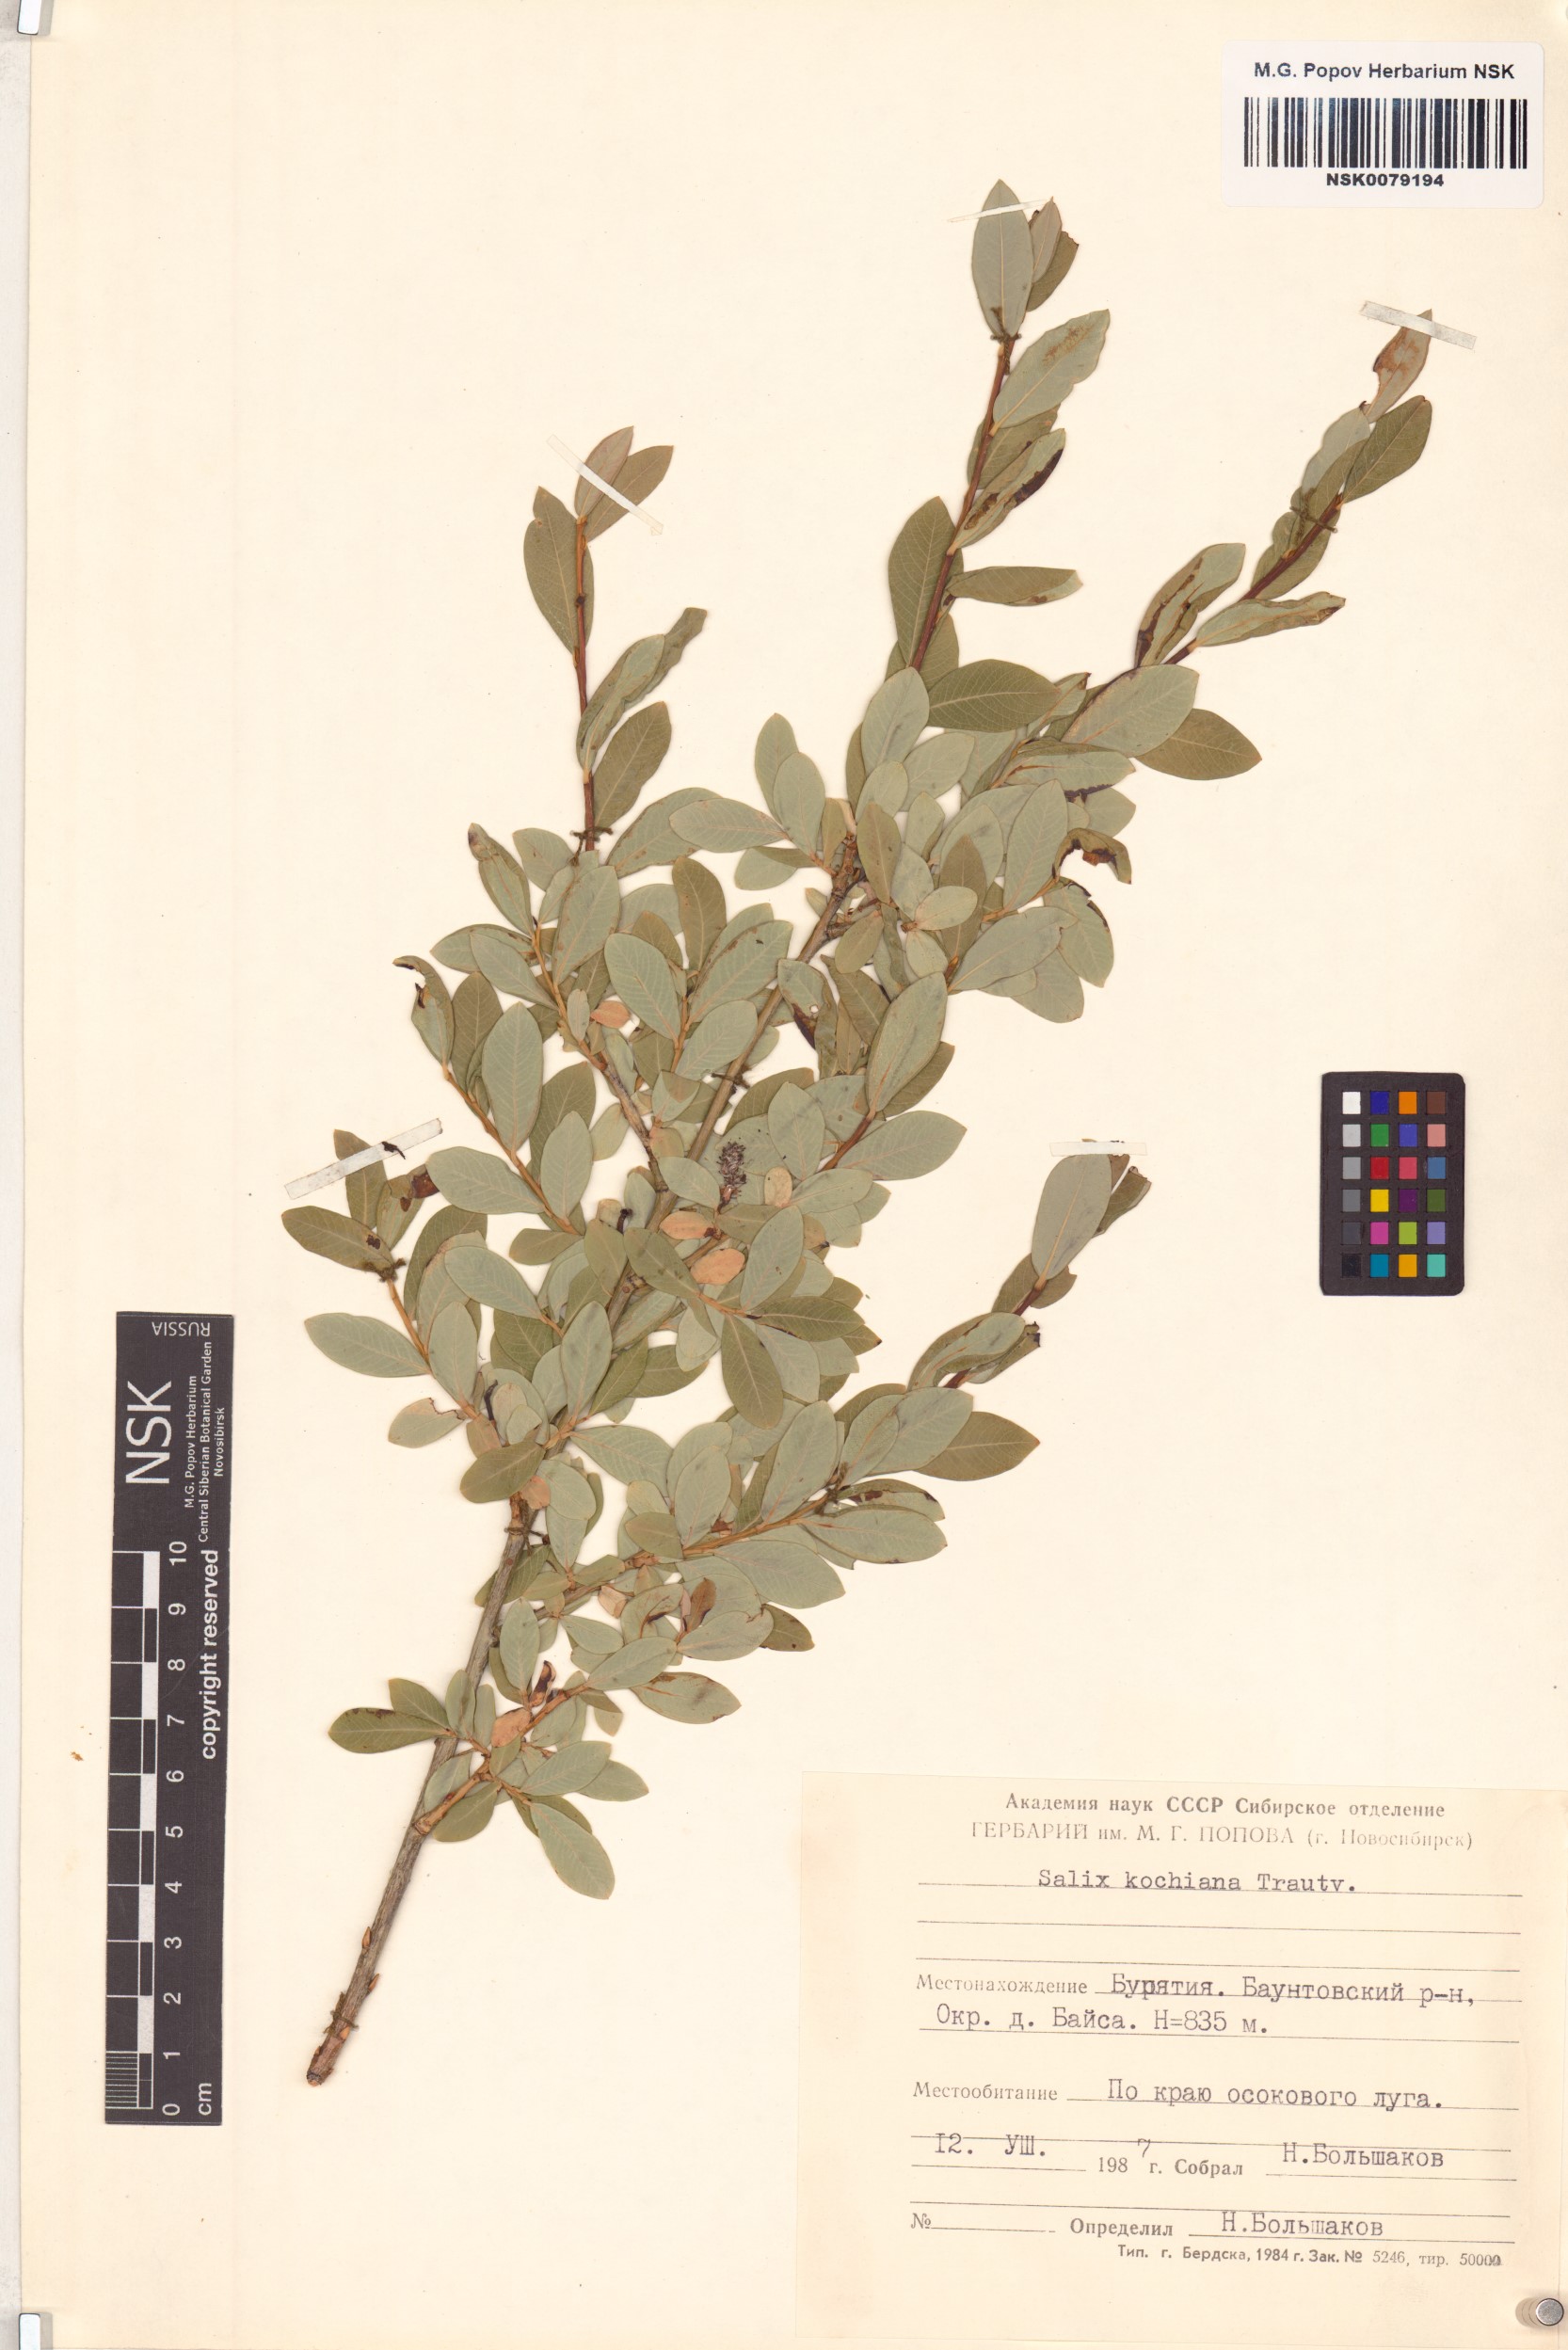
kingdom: Plantae
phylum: Tracheophyta
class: Magnoliopsida
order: Malpighiales
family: Salicaceae
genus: Salix
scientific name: Salix kochiana
